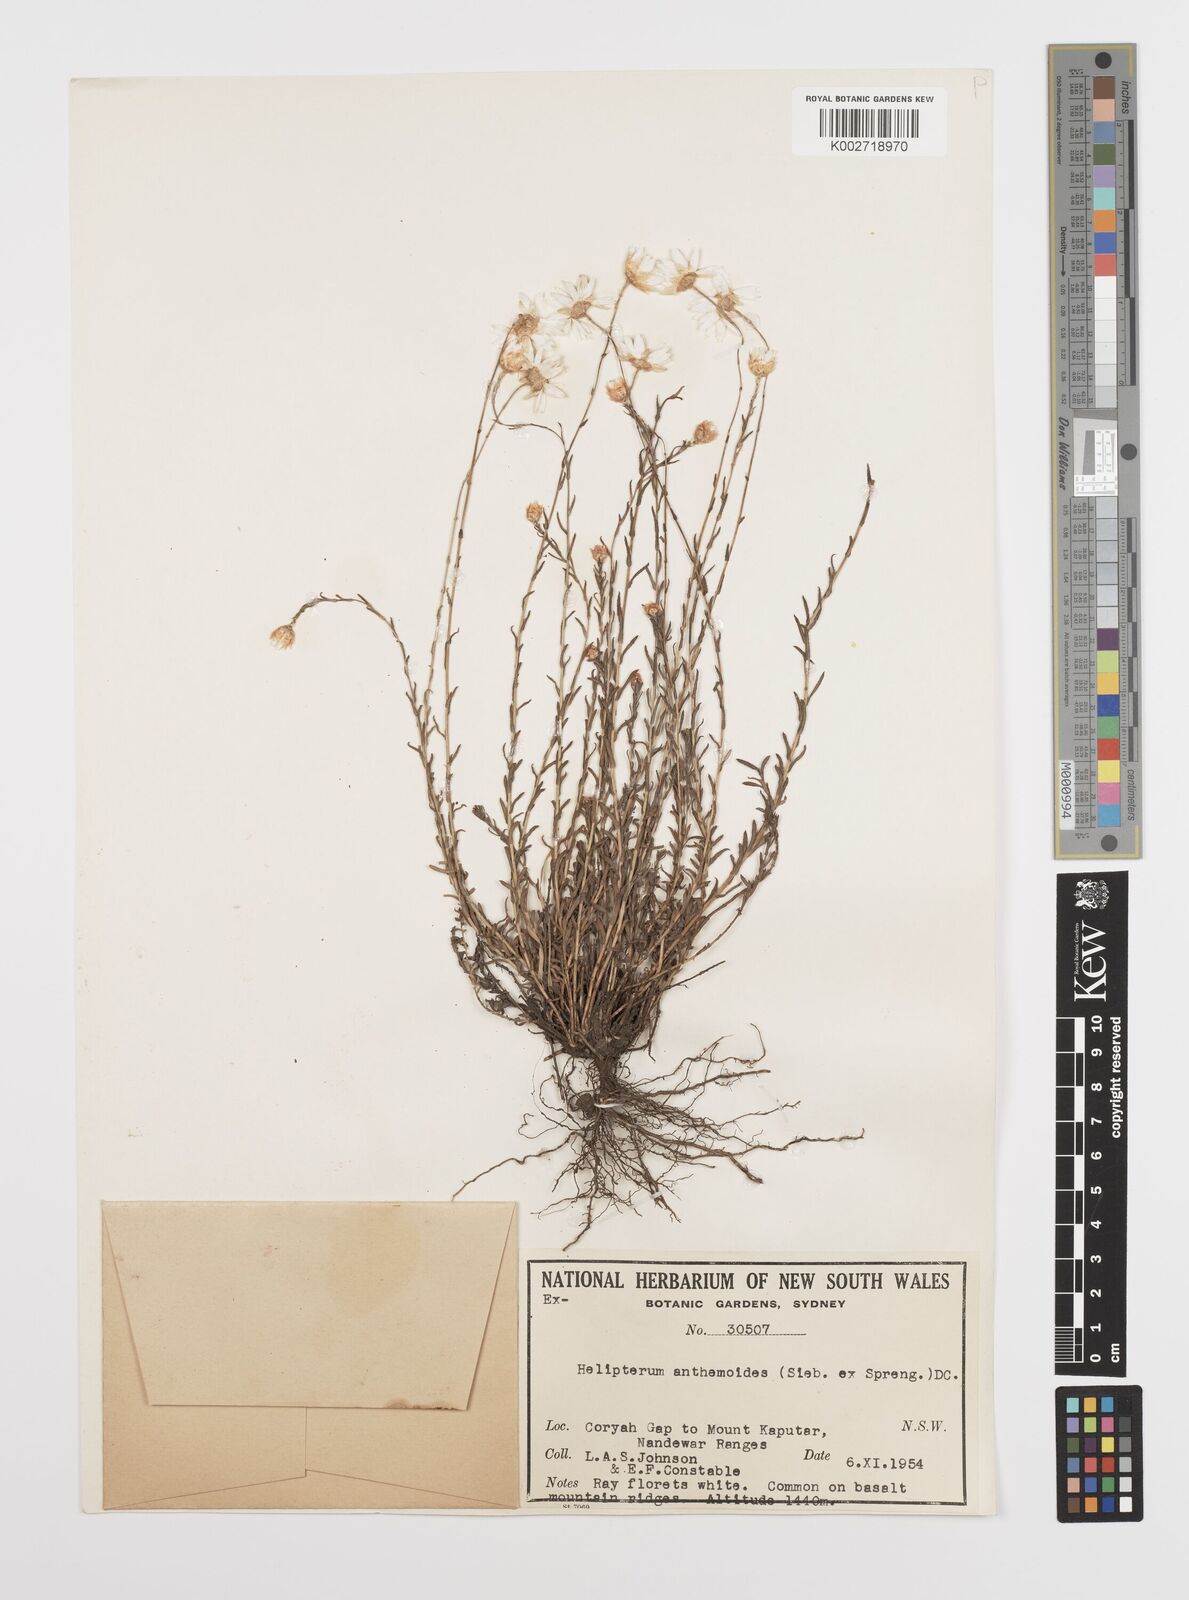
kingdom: Plantae
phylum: Tracheophyta
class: Magnoliopsida
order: Asterales
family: Asteraceae
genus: Rhodanthe
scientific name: Rhodanthe anthemoides
